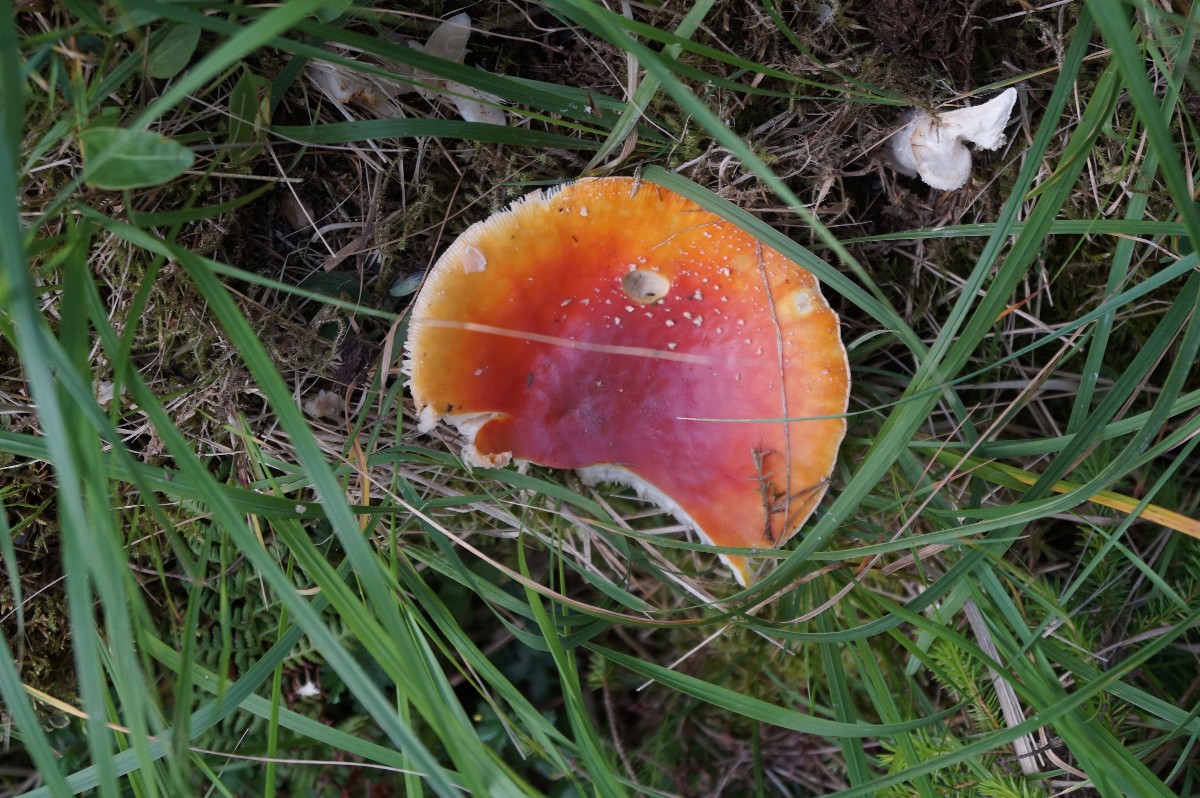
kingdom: Fungi
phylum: Basidiomycota
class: Agaricomycetes
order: Agaricales
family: Amanitaceae
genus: Amanita
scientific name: Amanita muscaria
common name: rød fluesvamp
